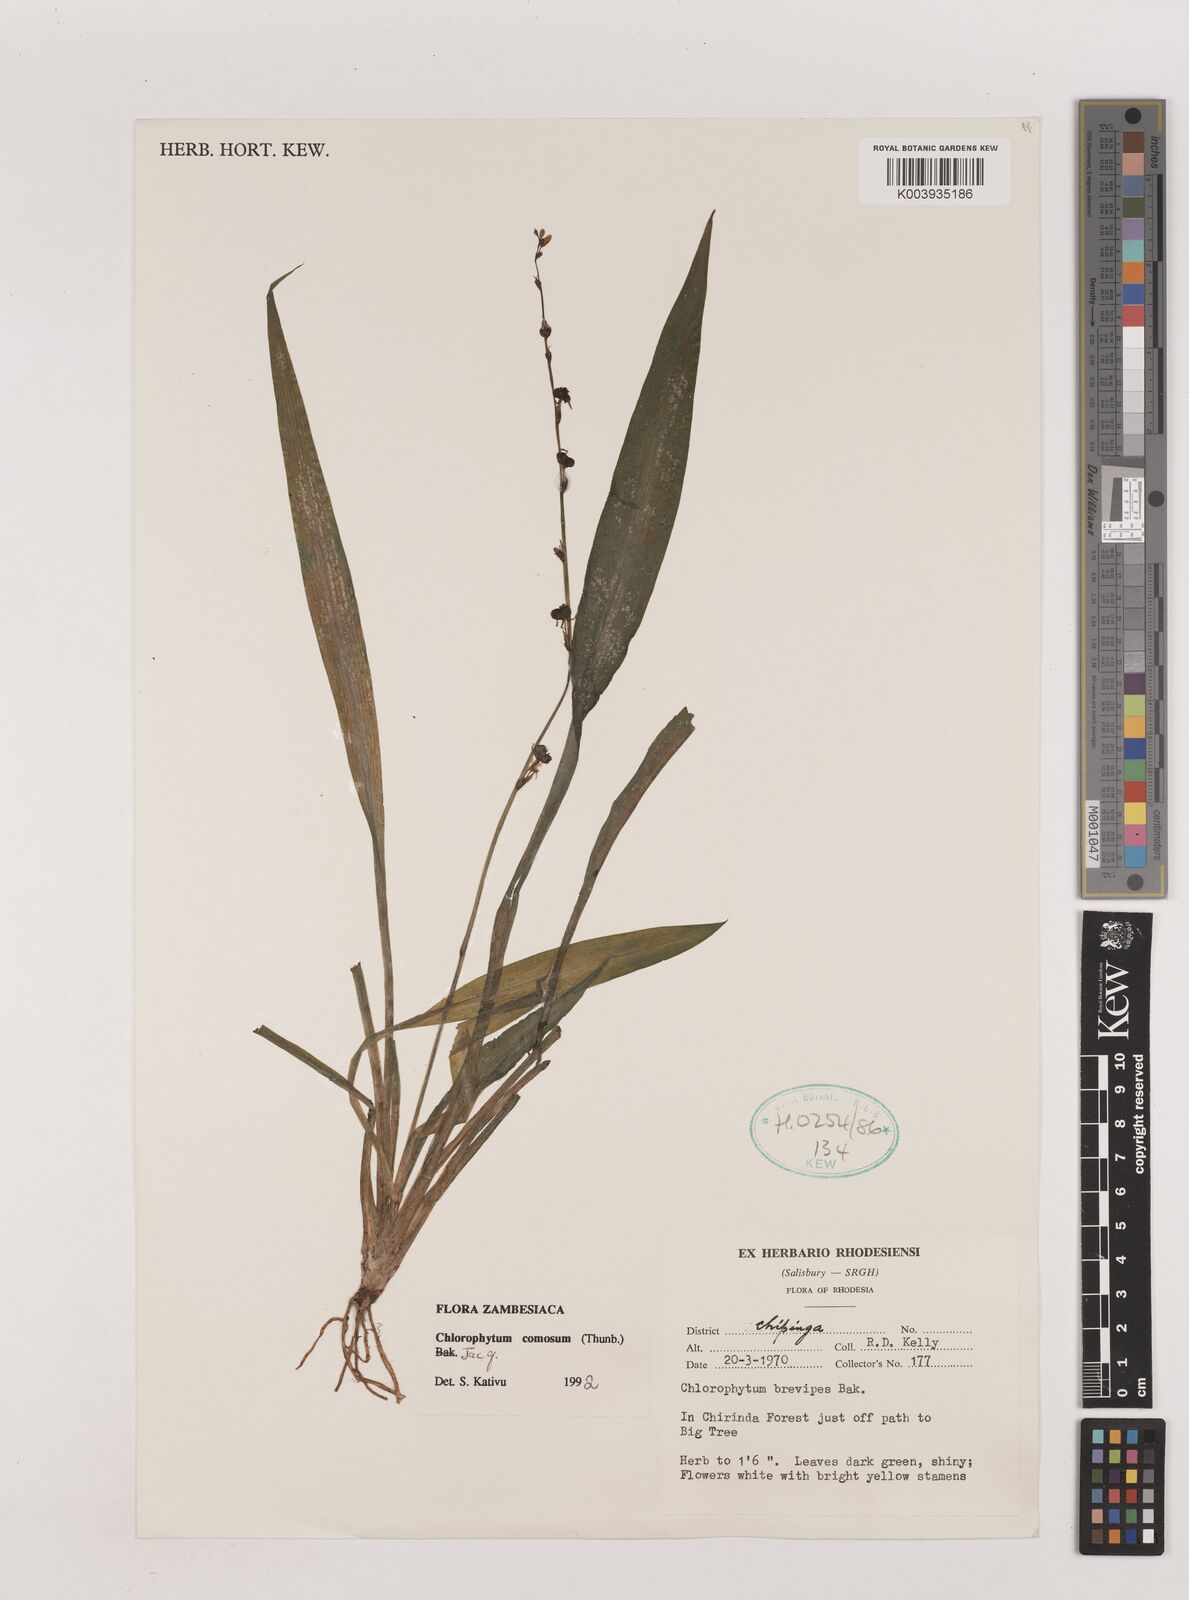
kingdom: Plantae
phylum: Tracheophyta
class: Liliopsida
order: Asparagales
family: Asparagaceae
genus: Chlorophytum
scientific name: Chlorophytum comosum
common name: Spider plant
